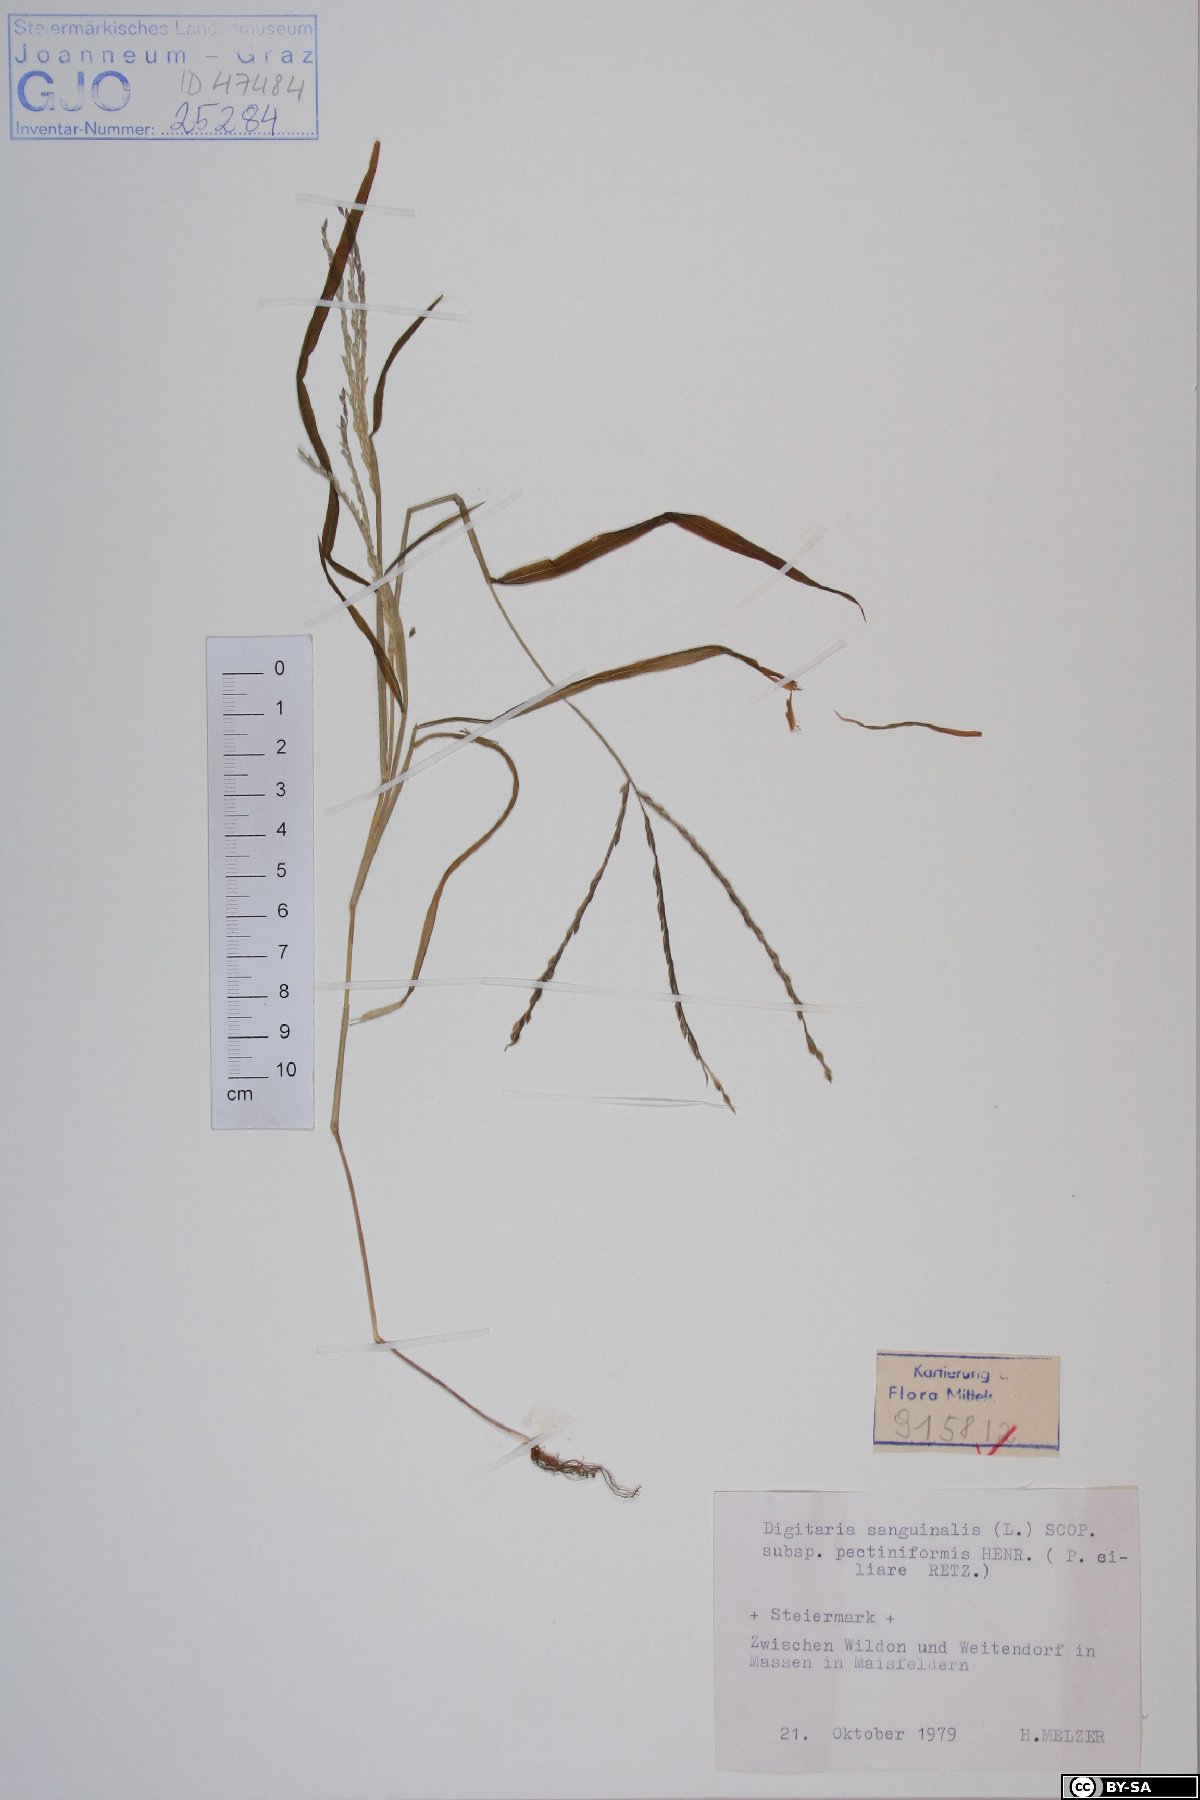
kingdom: Plantae
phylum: Tracheophyta
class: Liliopsida
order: Poales
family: Poaceae
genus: Digitaria
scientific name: Digitaria sanguinalis
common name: Hairy crabgrass
